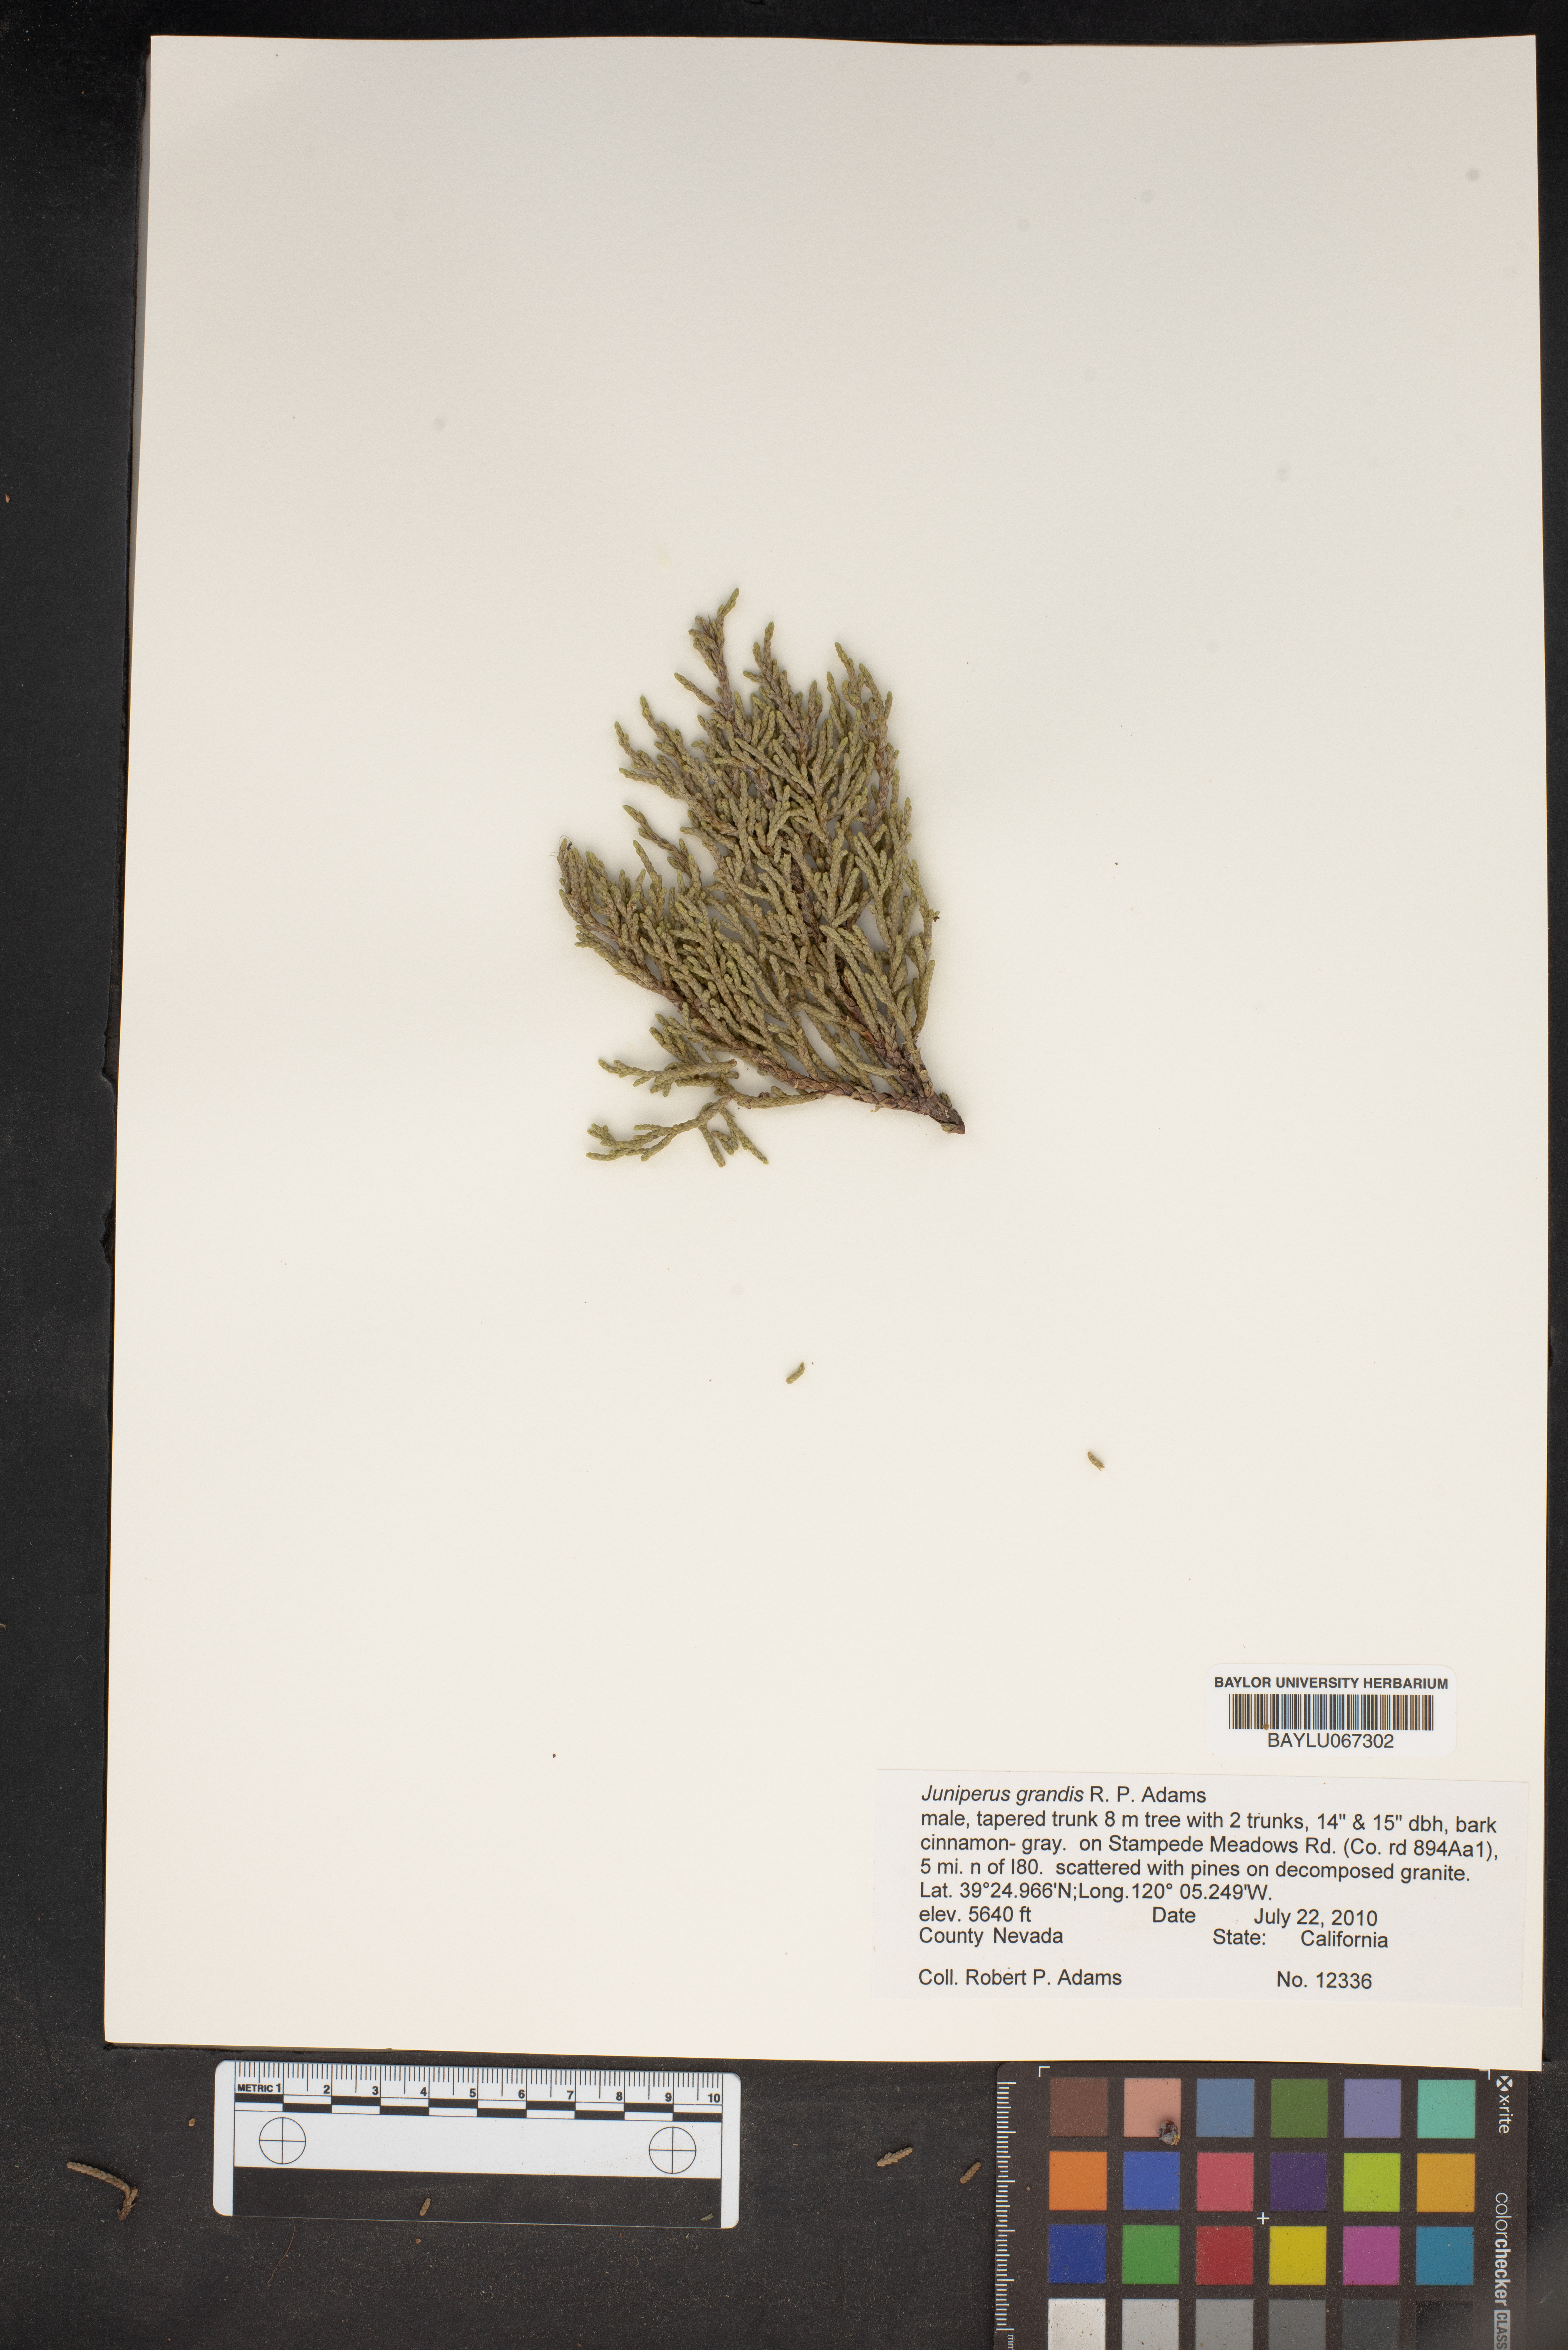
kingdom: Plantae
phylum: Tracheophyta
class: Pinopsida
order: Pinales
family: Cupressaceae
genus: Juniperus
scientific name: Juniperus occidentalis
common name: Western juniper
